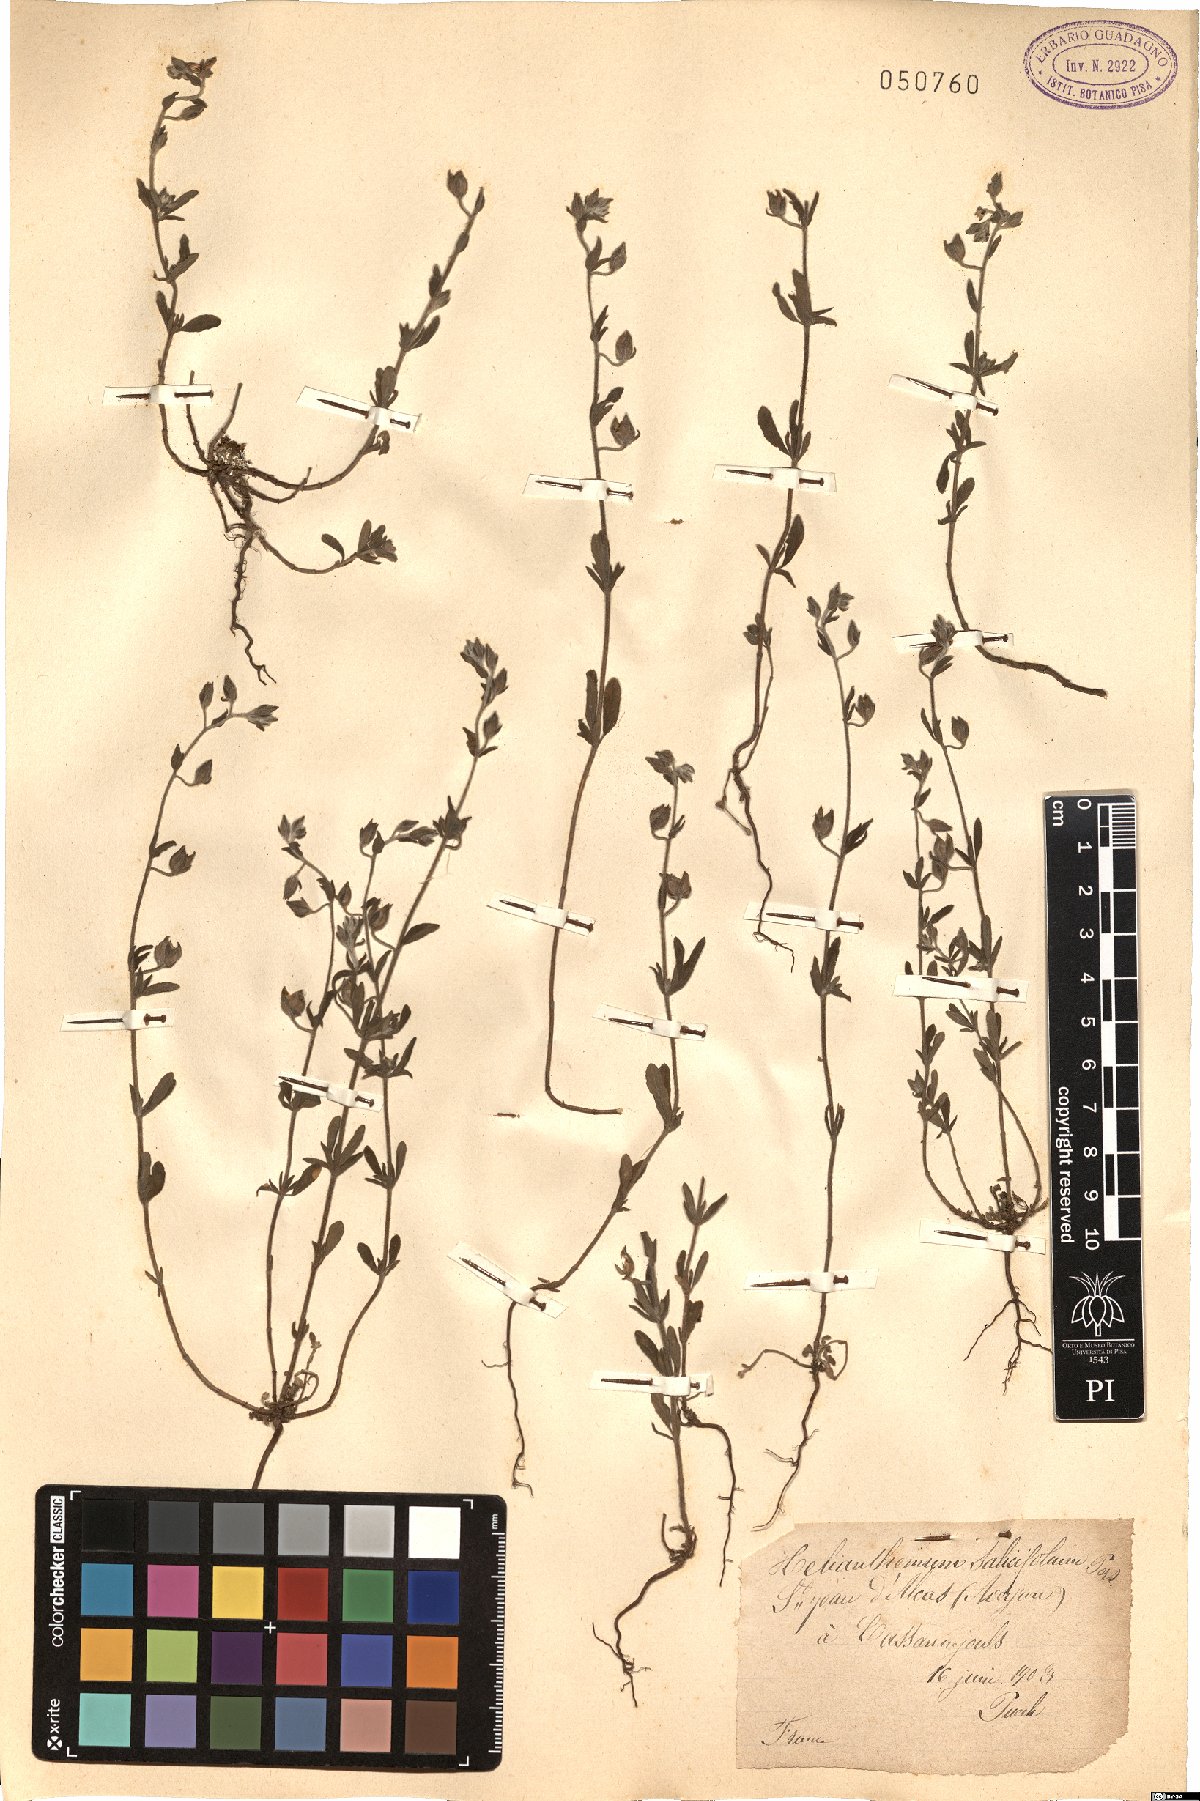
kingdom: Plantae
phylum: Tracheophyta
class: Magnoliopsida
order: Malvales
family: Cistaceae
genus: Helianthemum
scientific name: Helianthemum salicifolium
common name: Willowleaf frostweed
